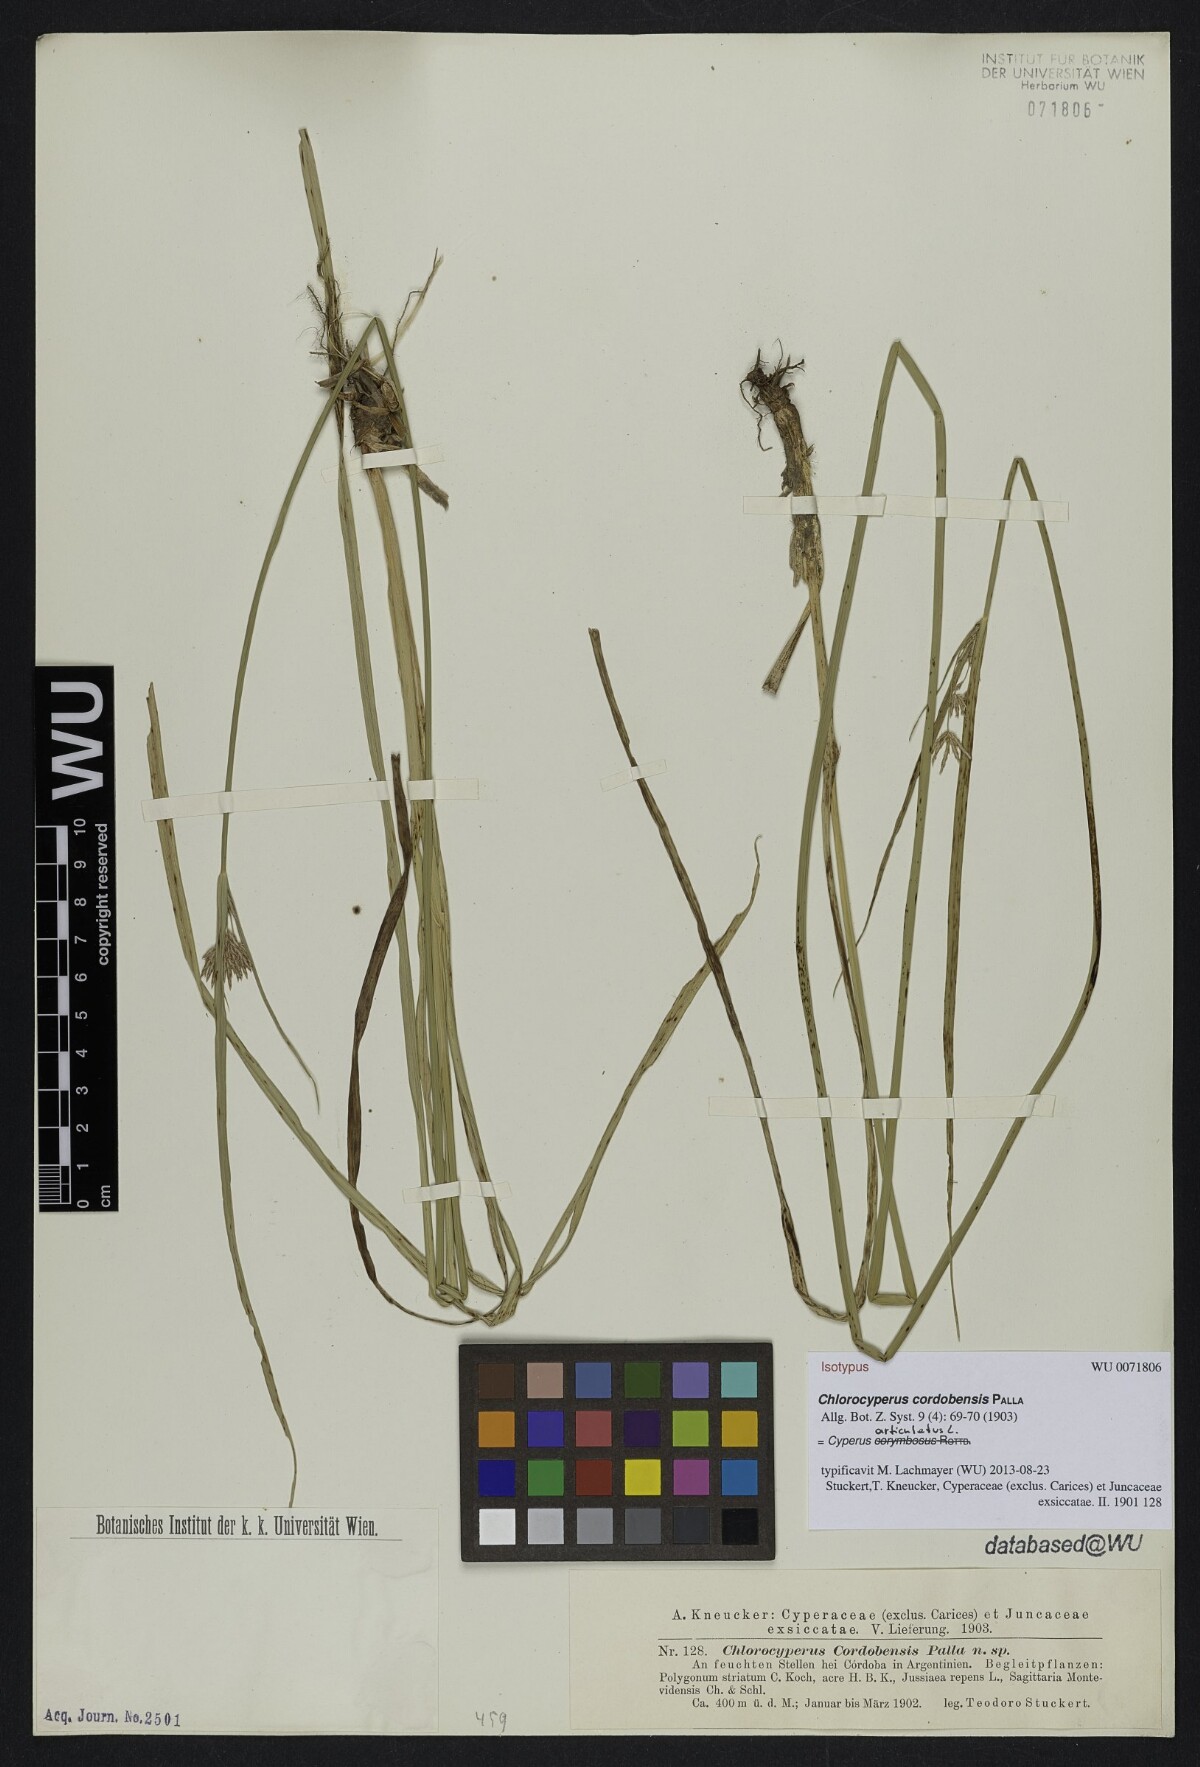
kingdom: Plantae
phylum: Tracheophyta
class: Liliopsida
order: Poales
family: Cyperaceae
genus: Cyperus
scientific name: Cyperus articulatus
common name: Jointed flatsedge
